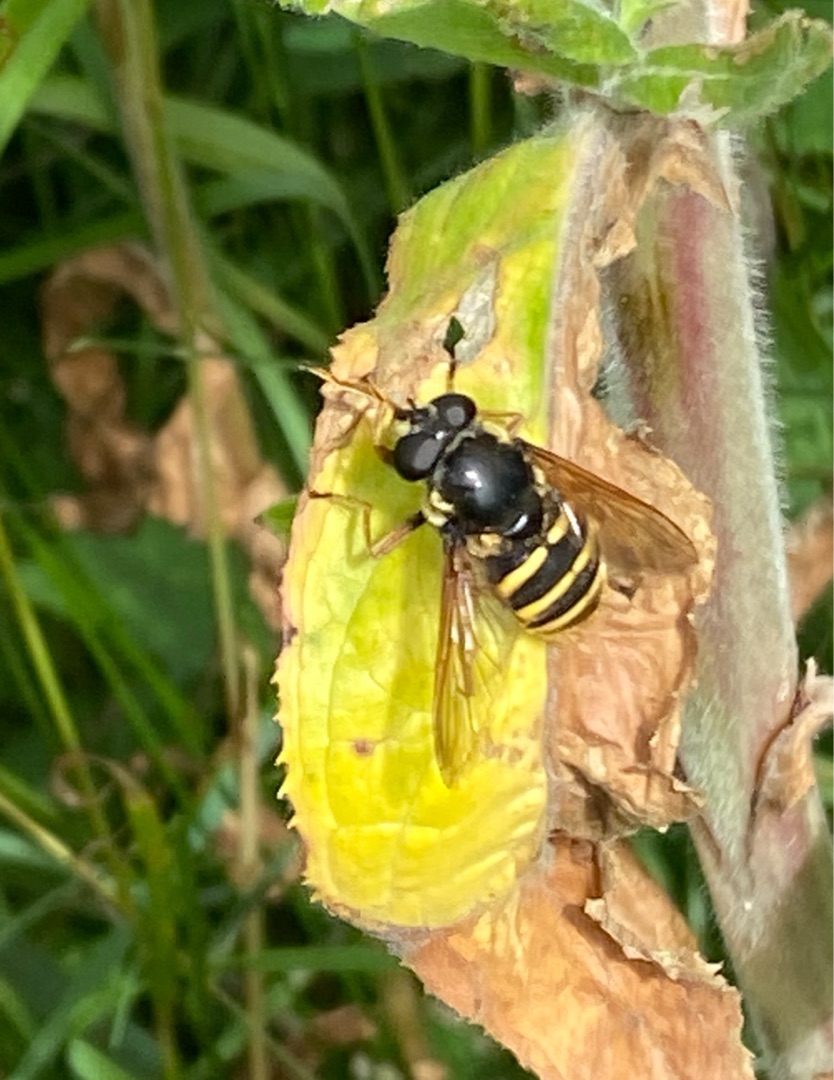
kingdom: Animalia
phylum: Arthropoda
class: Insecta
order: Diptera
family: Syrphidae
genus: Sericomyia
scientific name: Sericomyia silentis
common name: Tørve-silkesvirreflue
